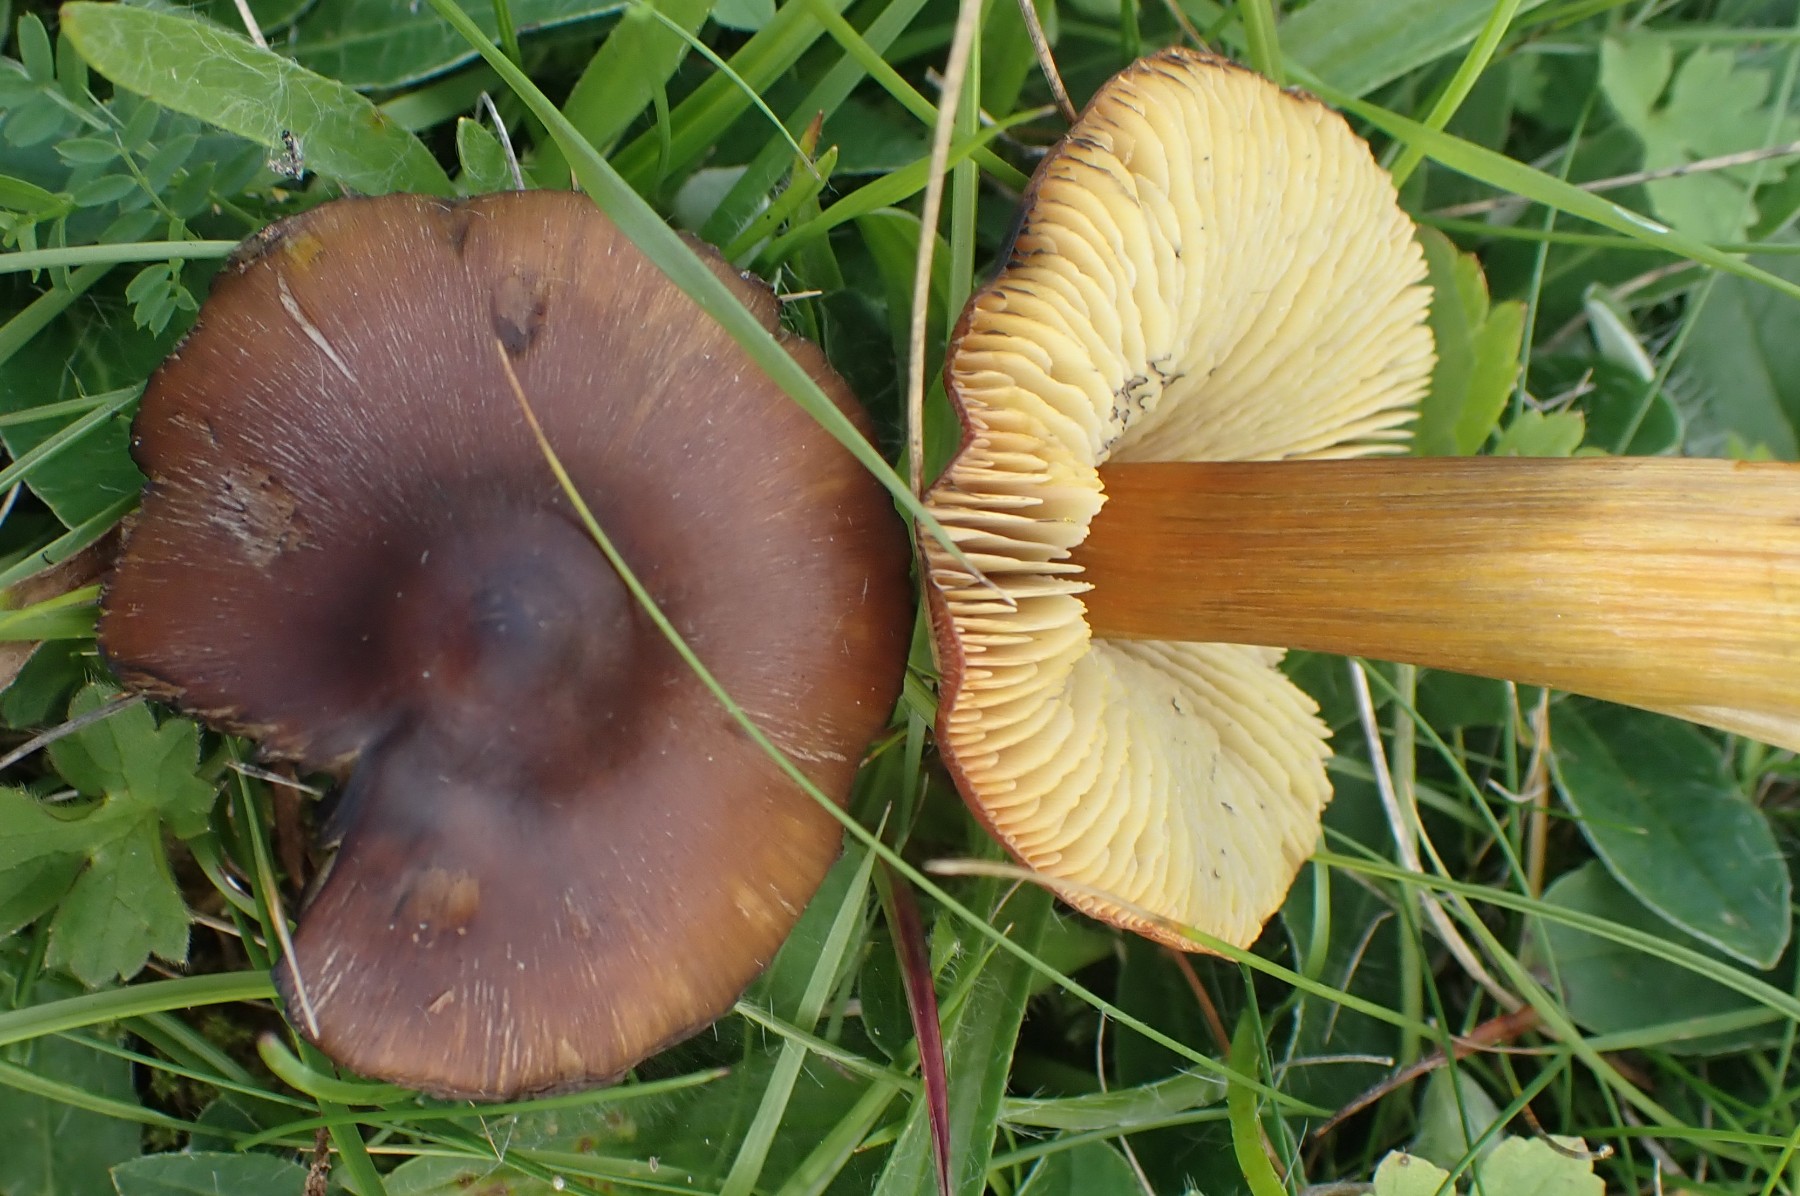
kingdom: Fungi
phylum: Basidiomycota
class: Agaricomycetes
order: Agaricales
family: Hygrophoraceae
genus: Hygrocybe
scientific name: Hygrocybe conica
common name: kegle-vokshat
